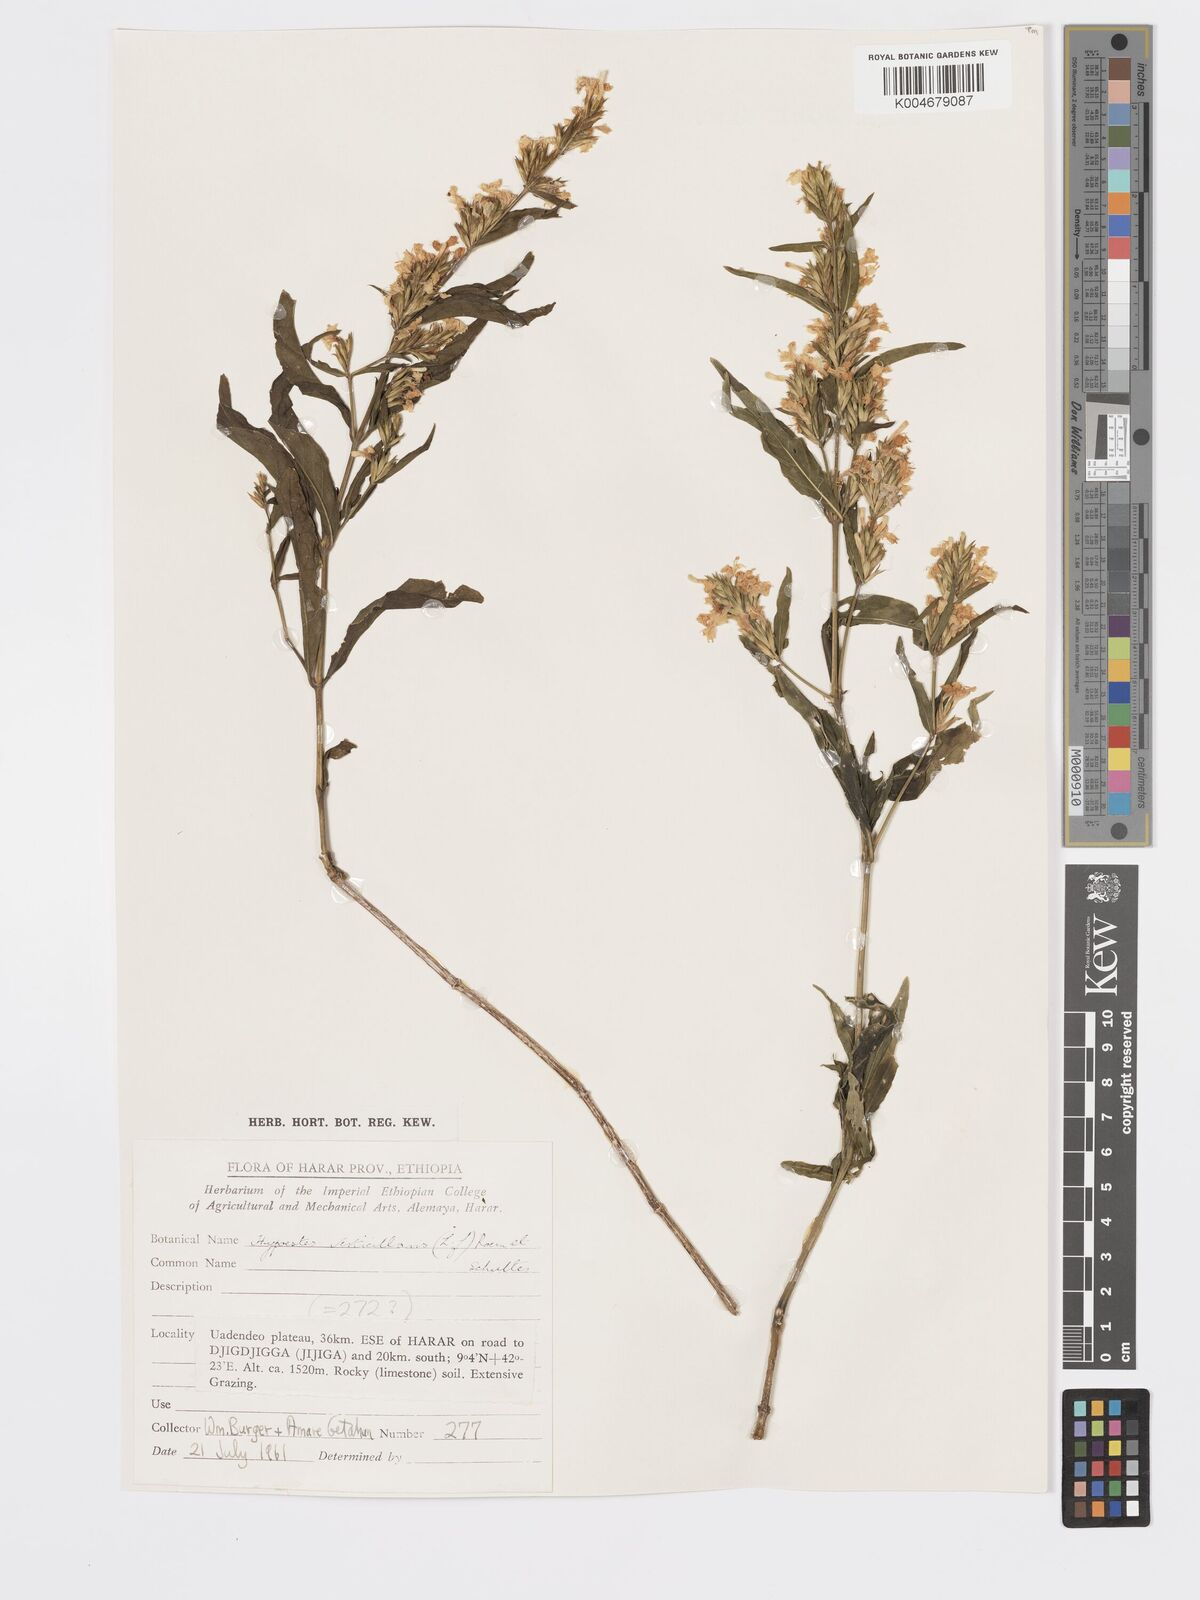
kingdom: Plantae
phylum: Tracheophyta
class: Magnoliopsida
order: Lamiales
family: Acanthaceae
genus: Hypoestes
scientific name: Hypoestes forskaolii
